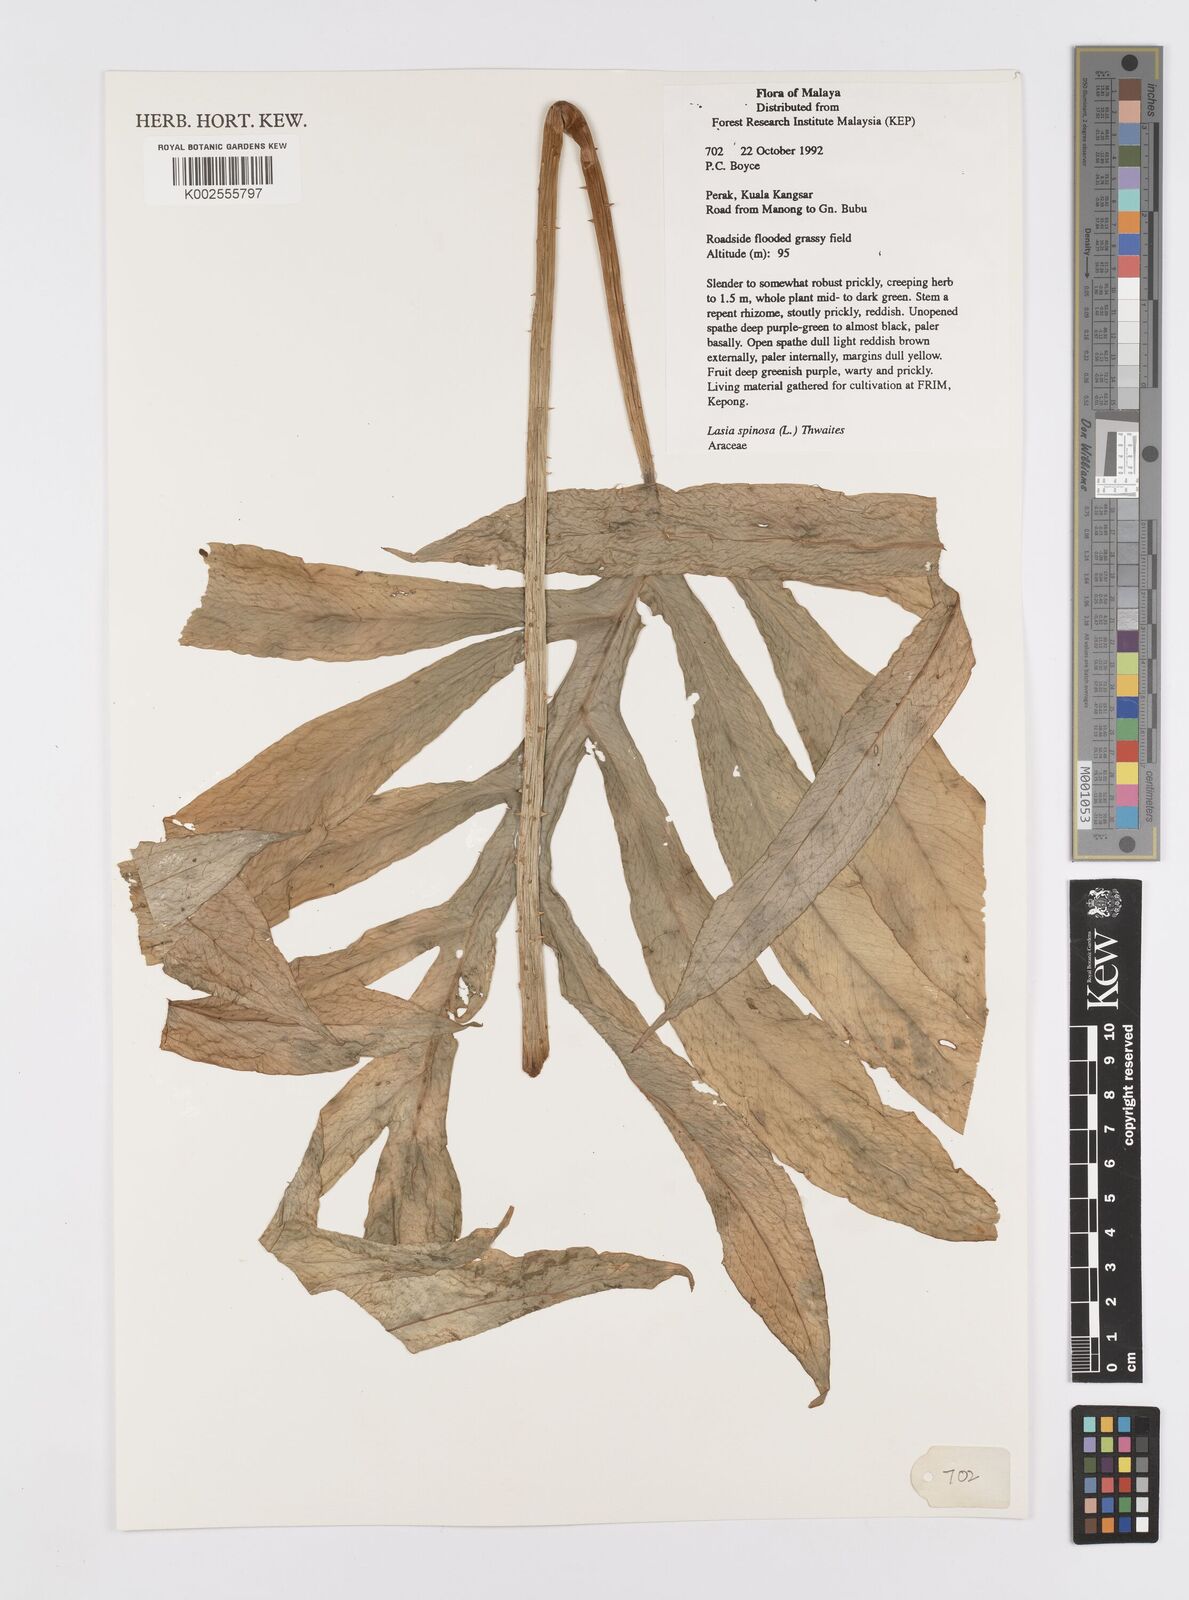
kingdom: Plantae
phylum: Tracheophyta
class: Liliopsida
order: Alismatales
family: Araceae
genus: Lasia
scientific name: Lasia spinosa
